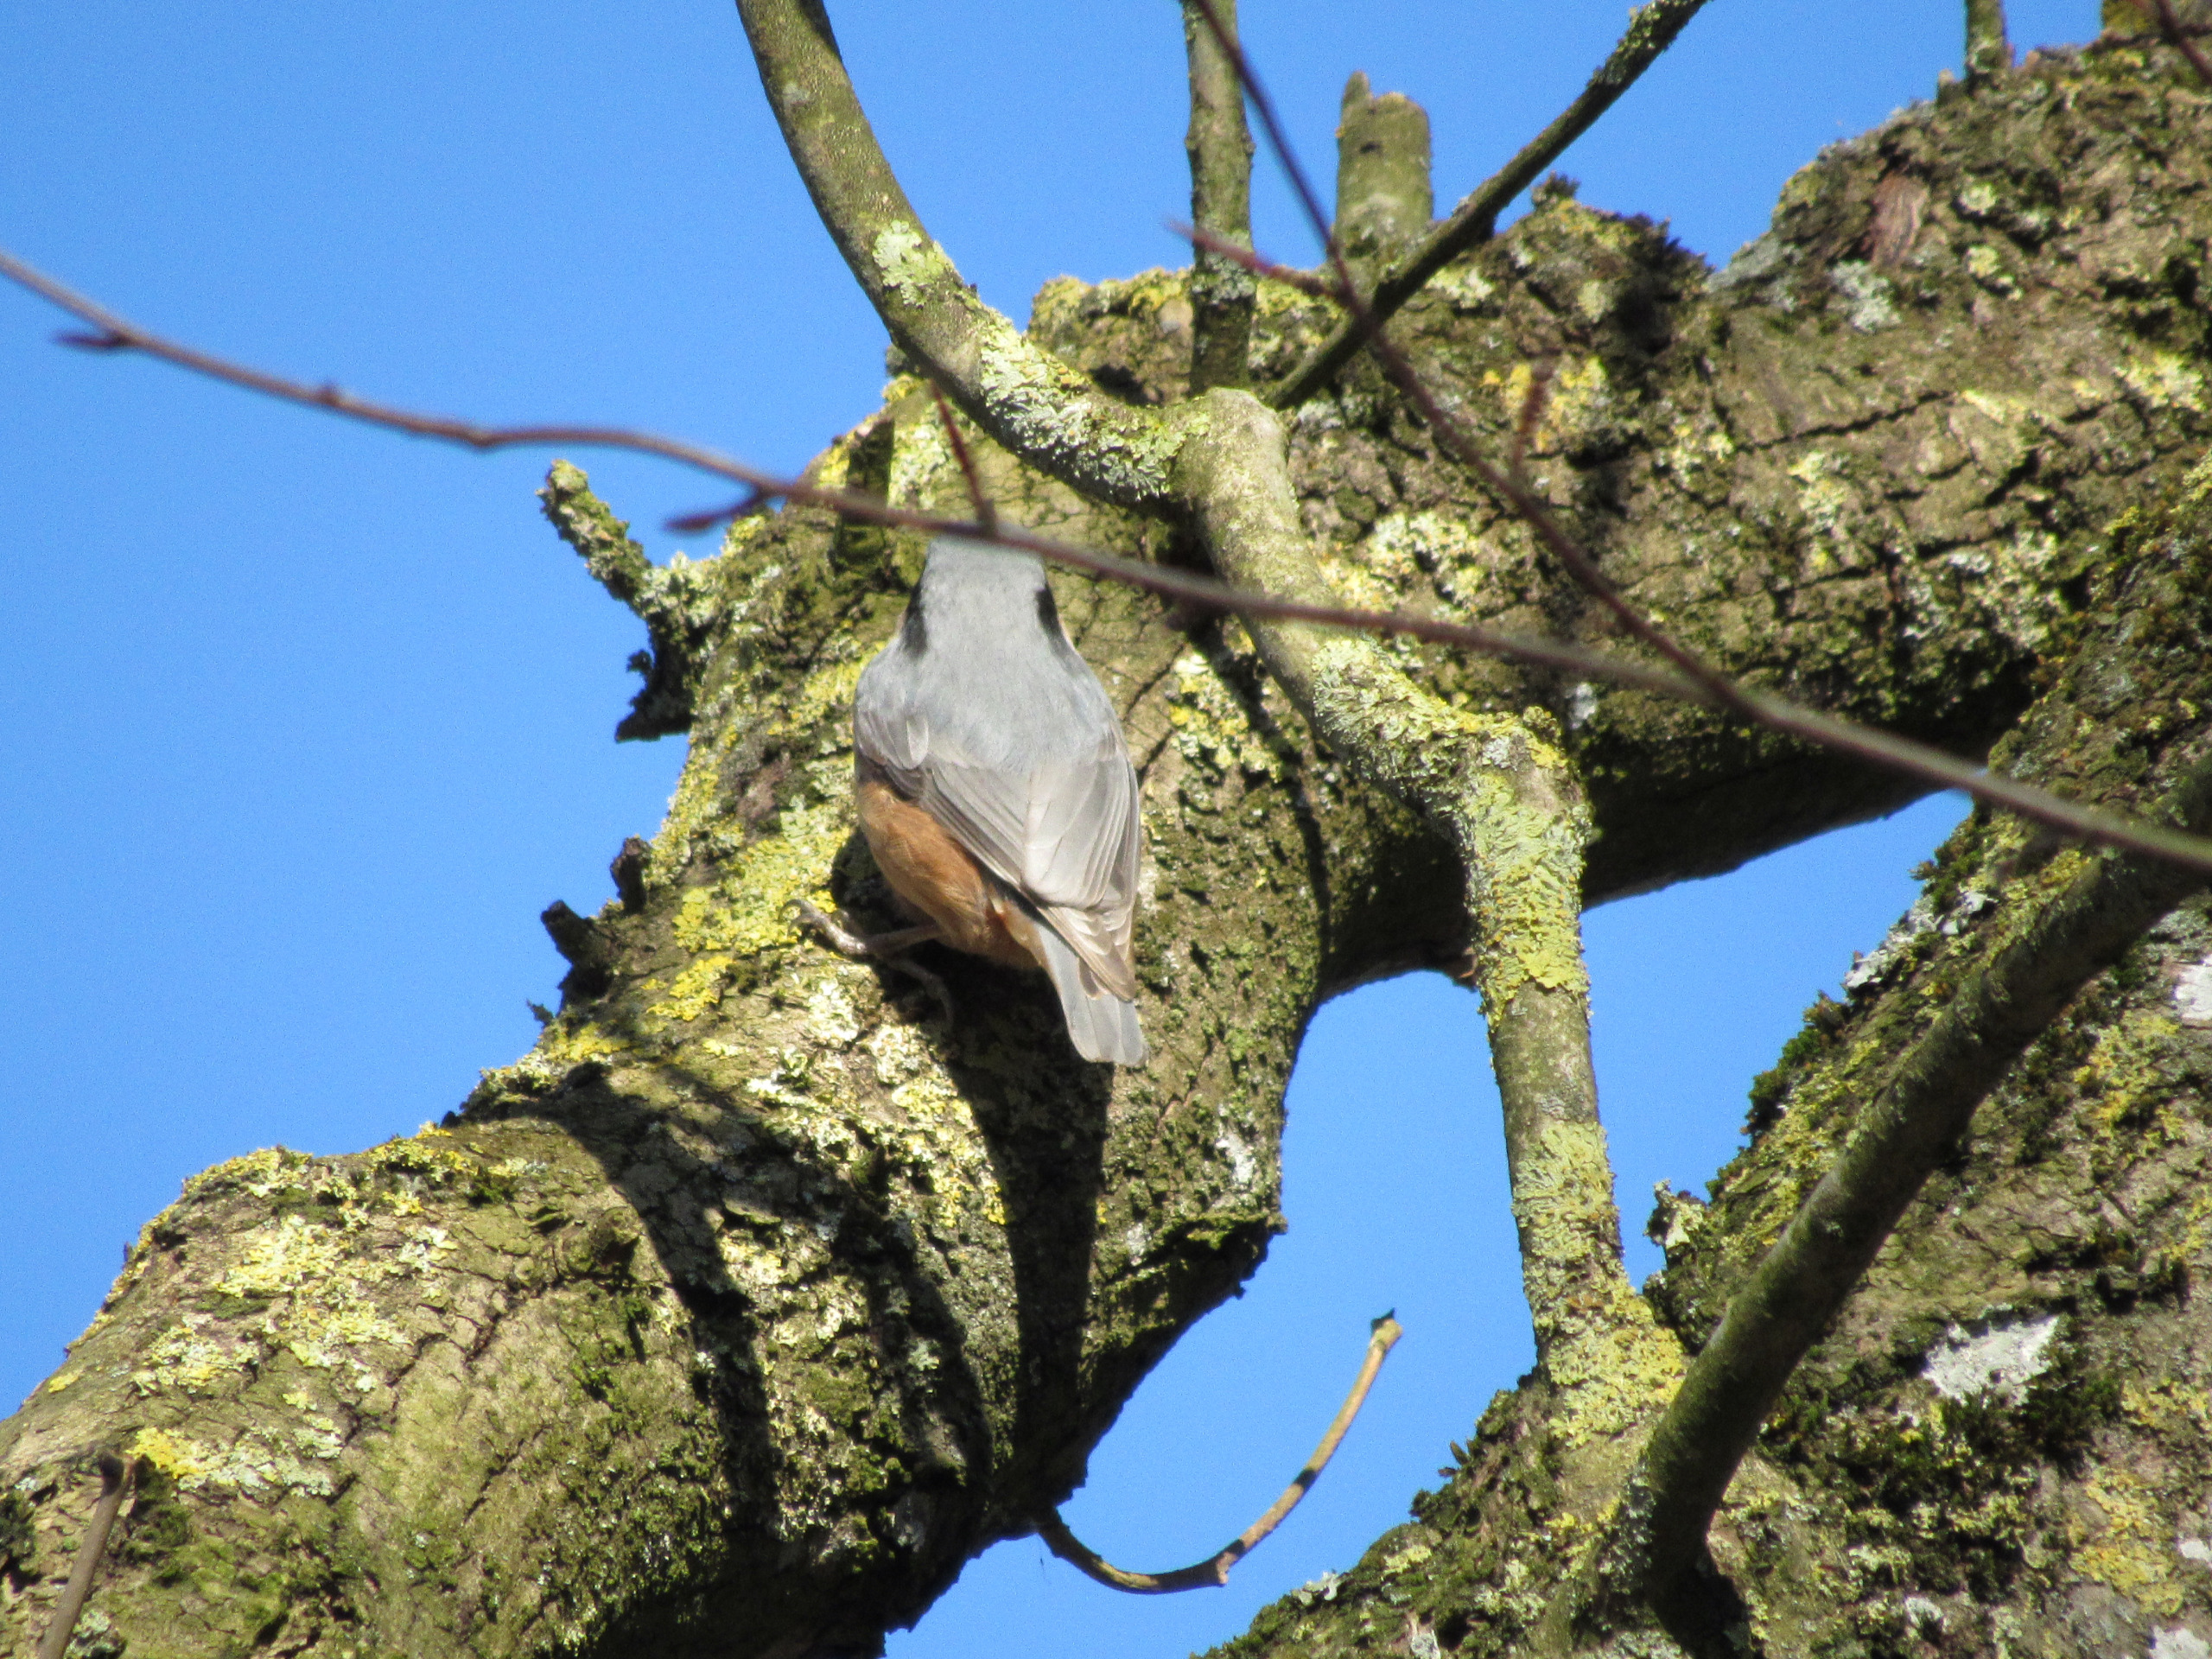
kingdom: Animalia
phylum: Chordata
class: Aves
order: Passeriformes
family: Sittidae
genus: Sitta
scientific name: Sitta europaea
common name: Spætmejse
